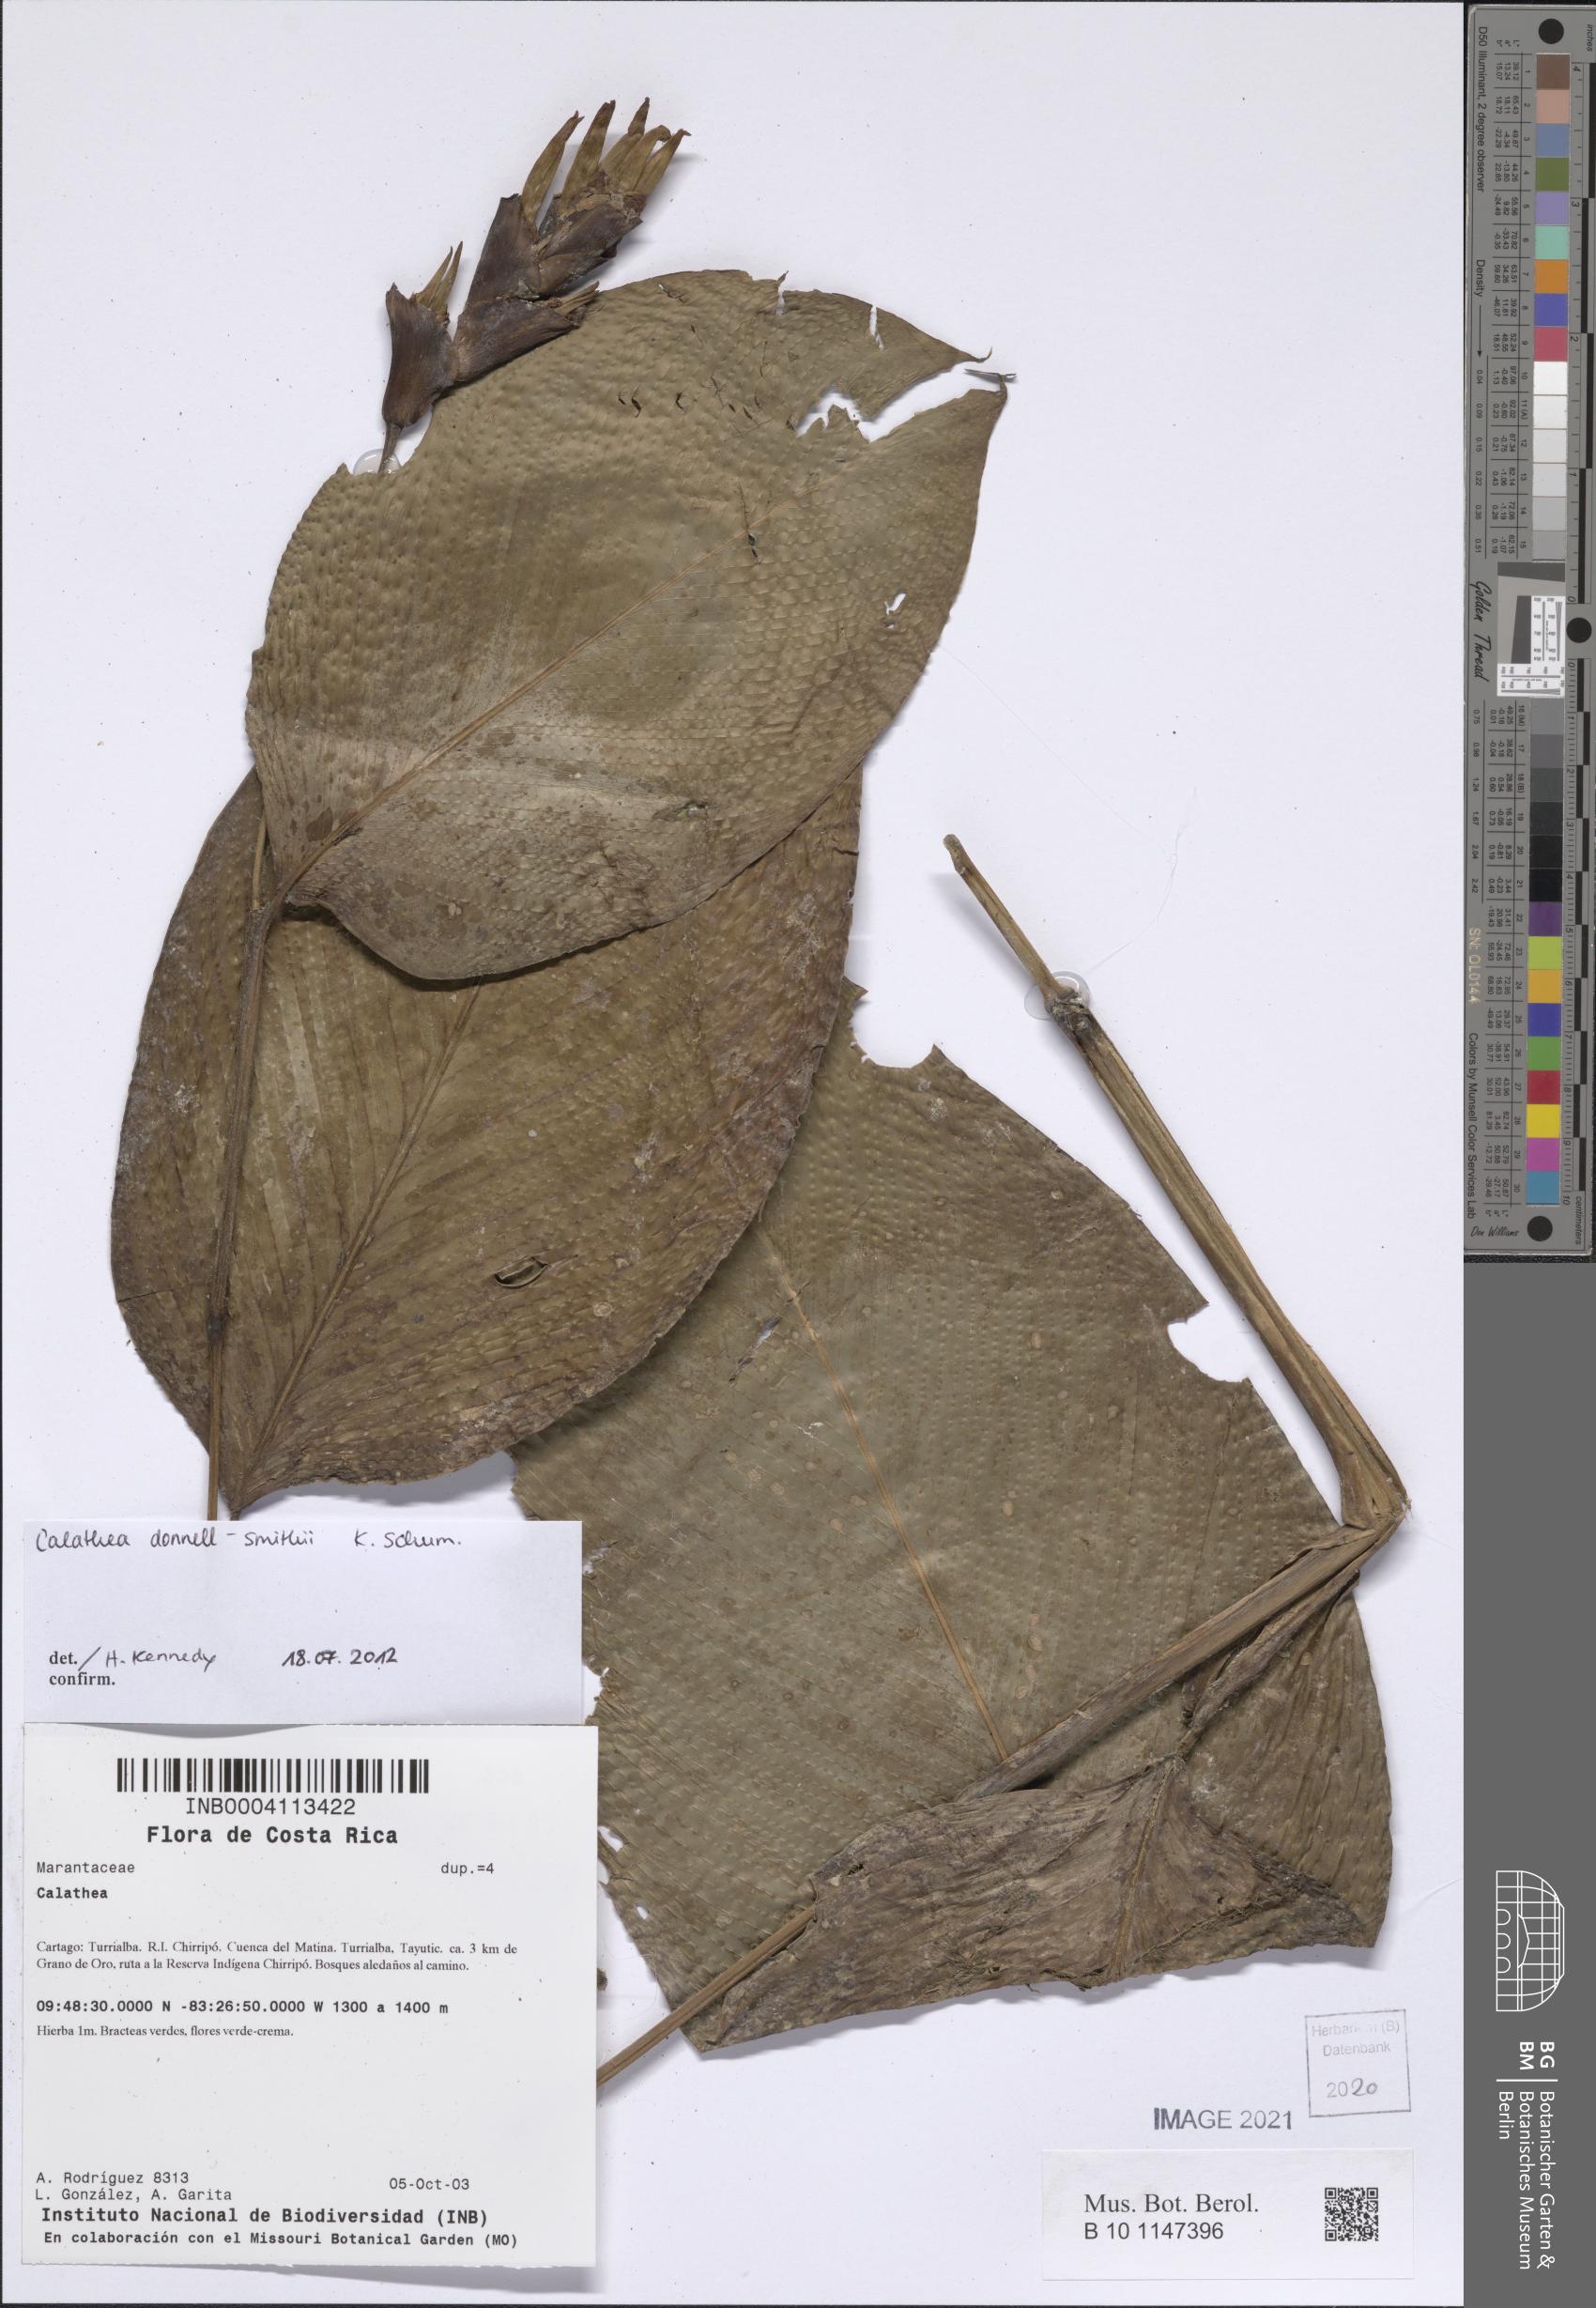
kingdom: Plantae
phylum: Tracheophyta
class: Liliopsida
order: Zingiberales
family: Marantaceae
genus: Goeppertia
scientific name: Goeppertia donnell-smithii
